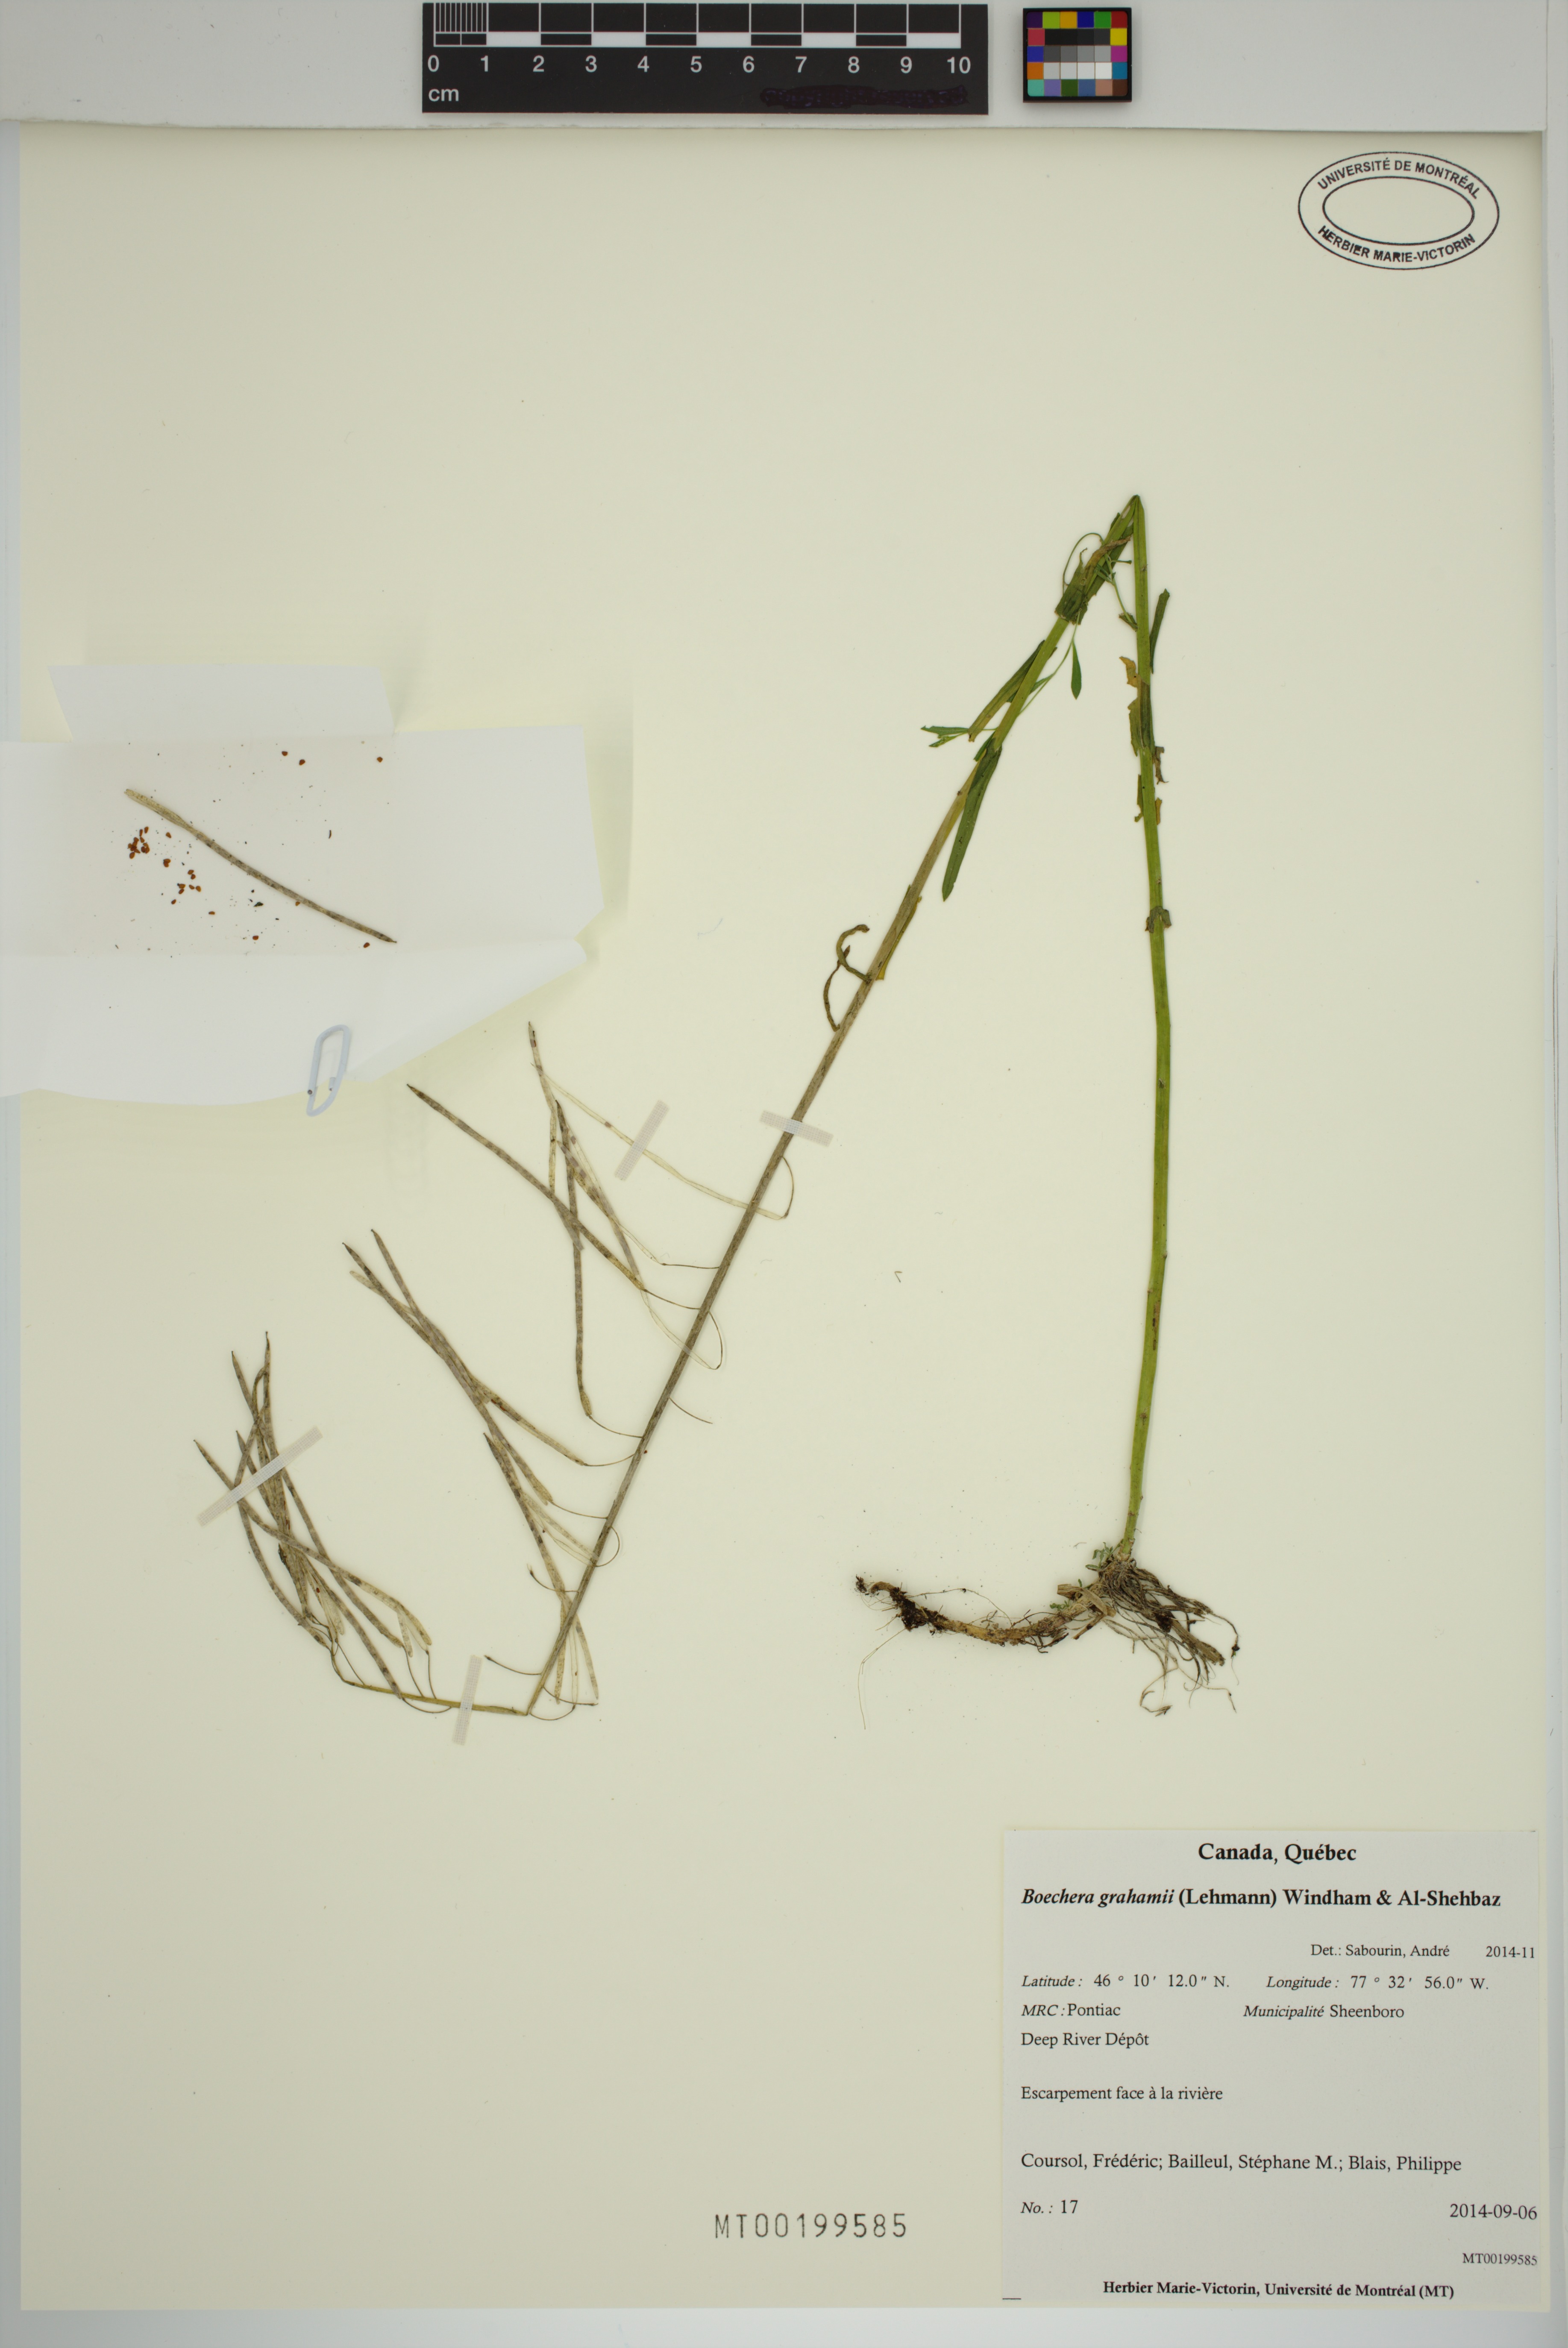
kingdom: Plantae
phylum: Tracheophyta
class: Magnoliopsida
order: Brassicales
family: Brassicaceae
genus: Boechera
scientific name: Boechera grahamii
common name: Graham's rockcress
